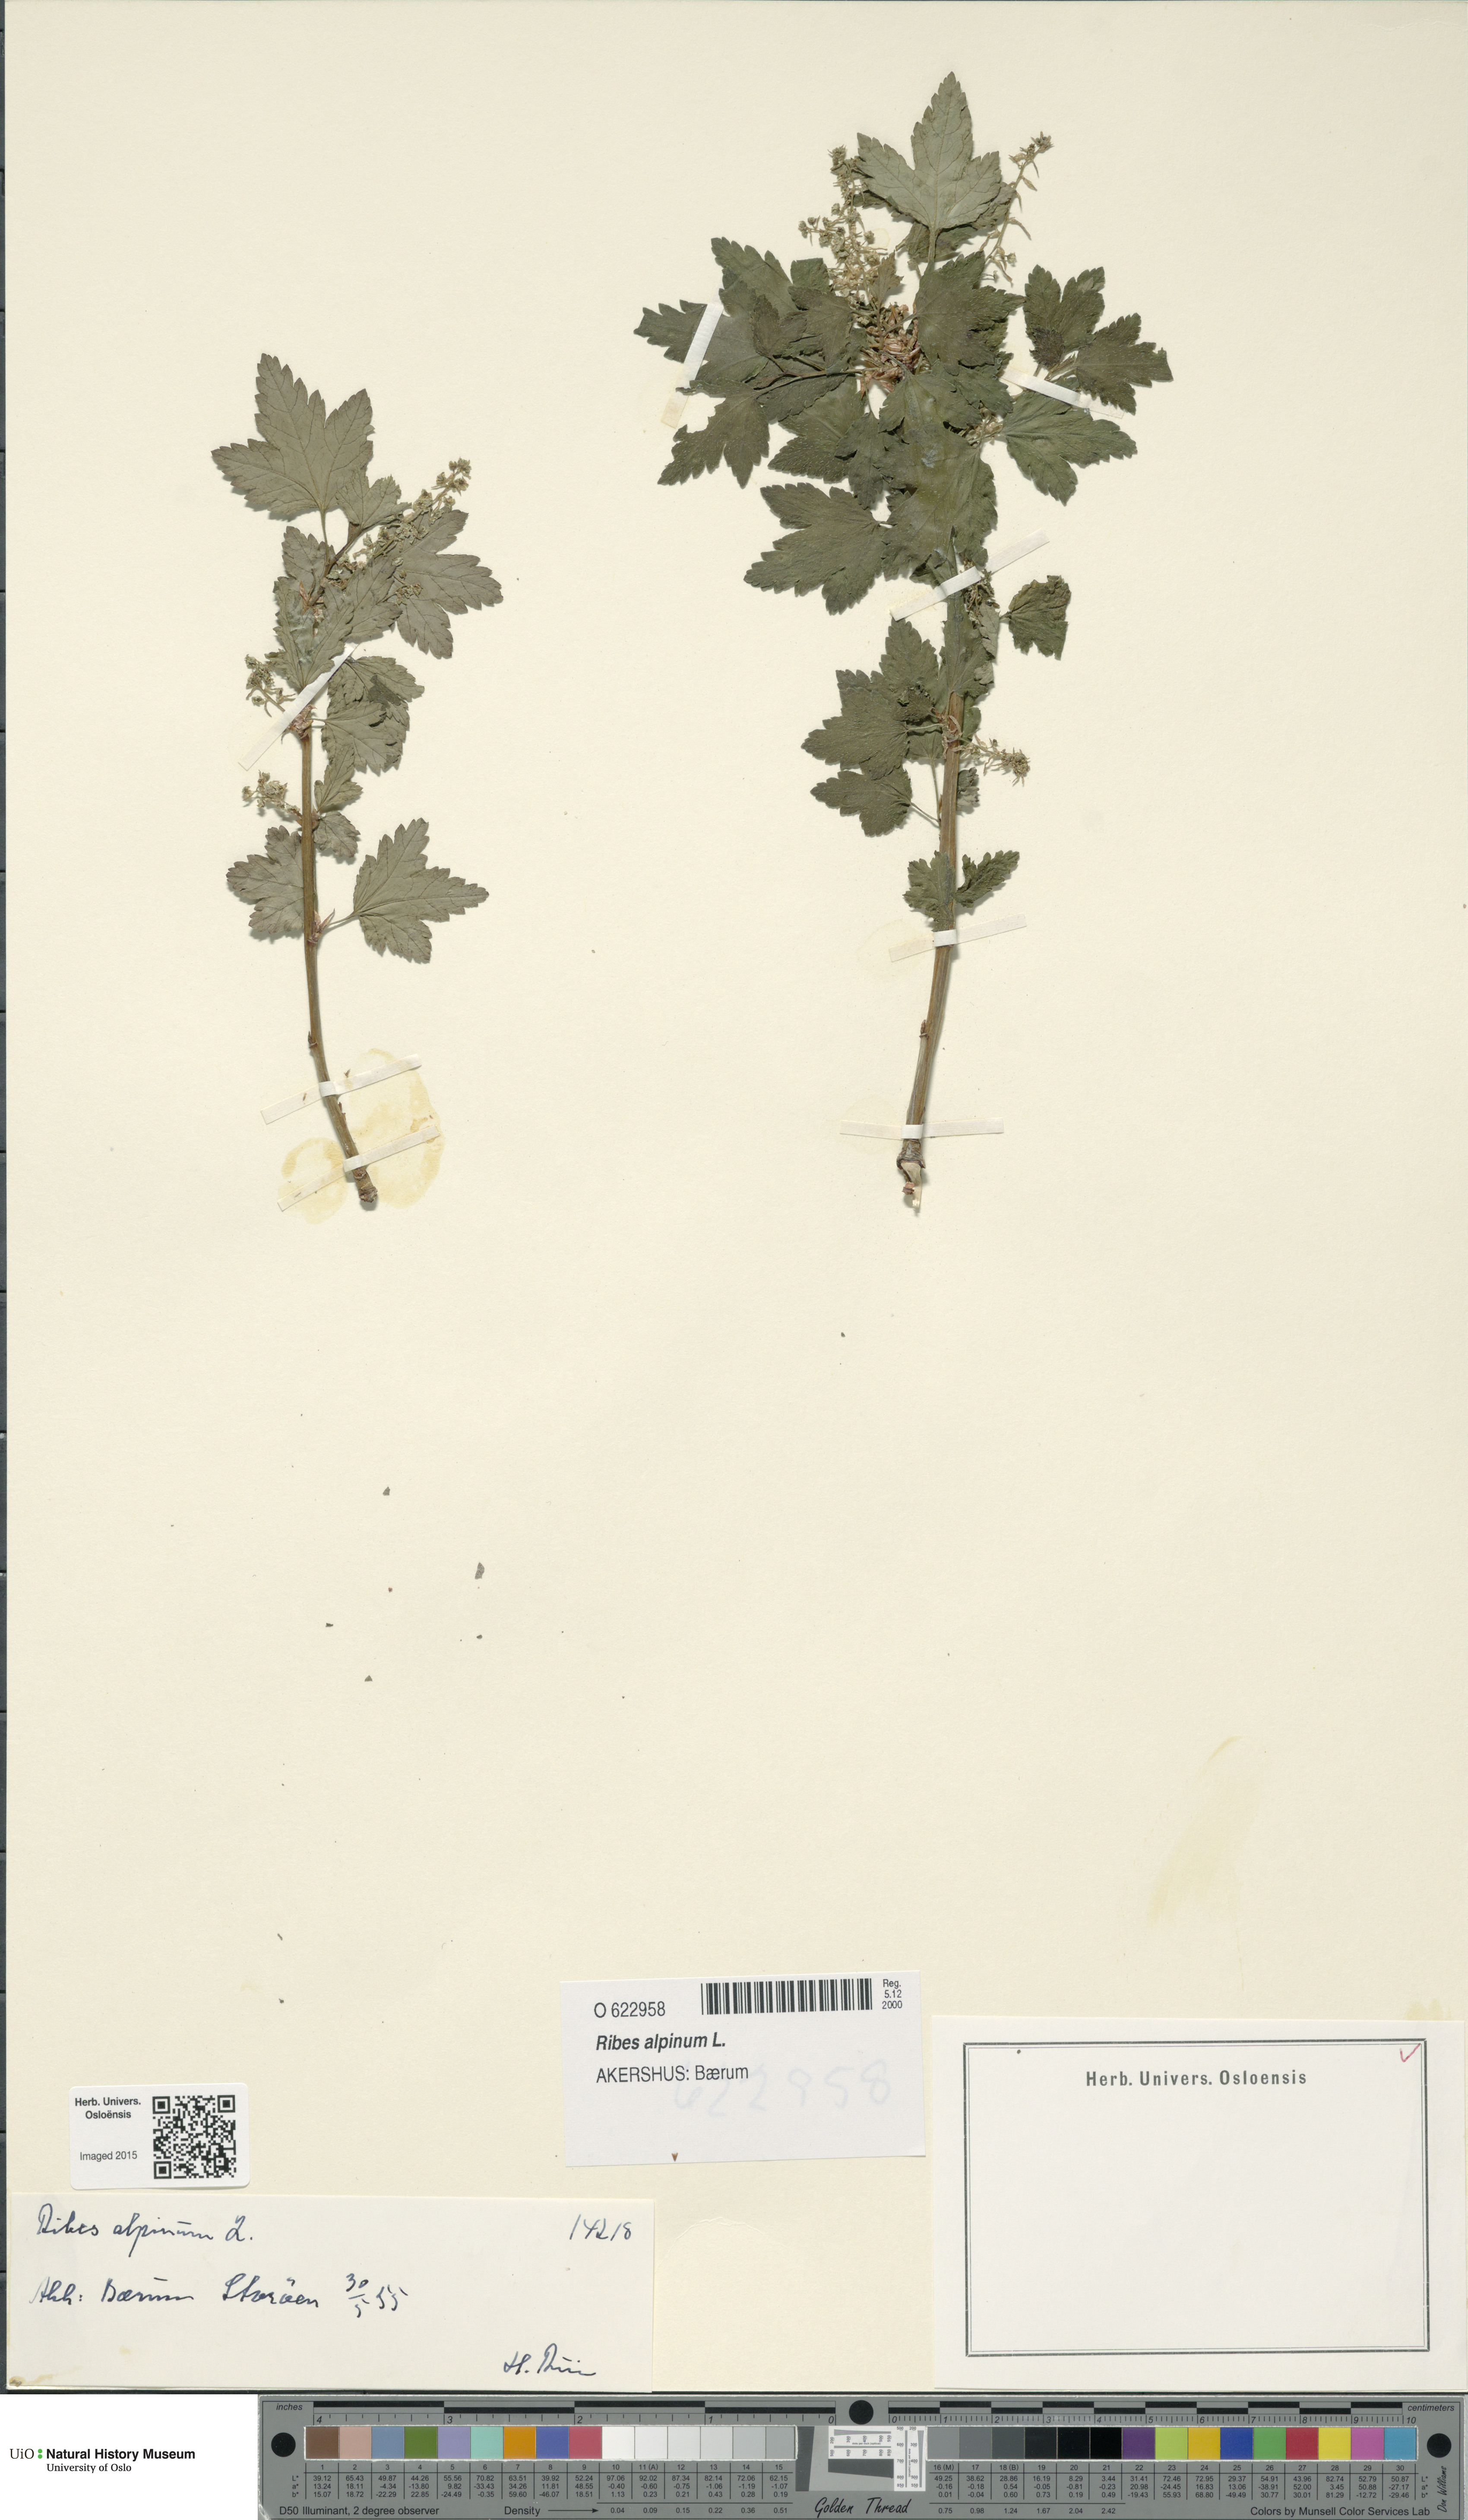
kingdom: Plantae
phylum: Tracheophyta
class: Magnoliopsida
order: Saxifragales
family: Grossulariaceae
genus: Ribes
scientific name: Ribes alpinum
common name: Alpine currant
